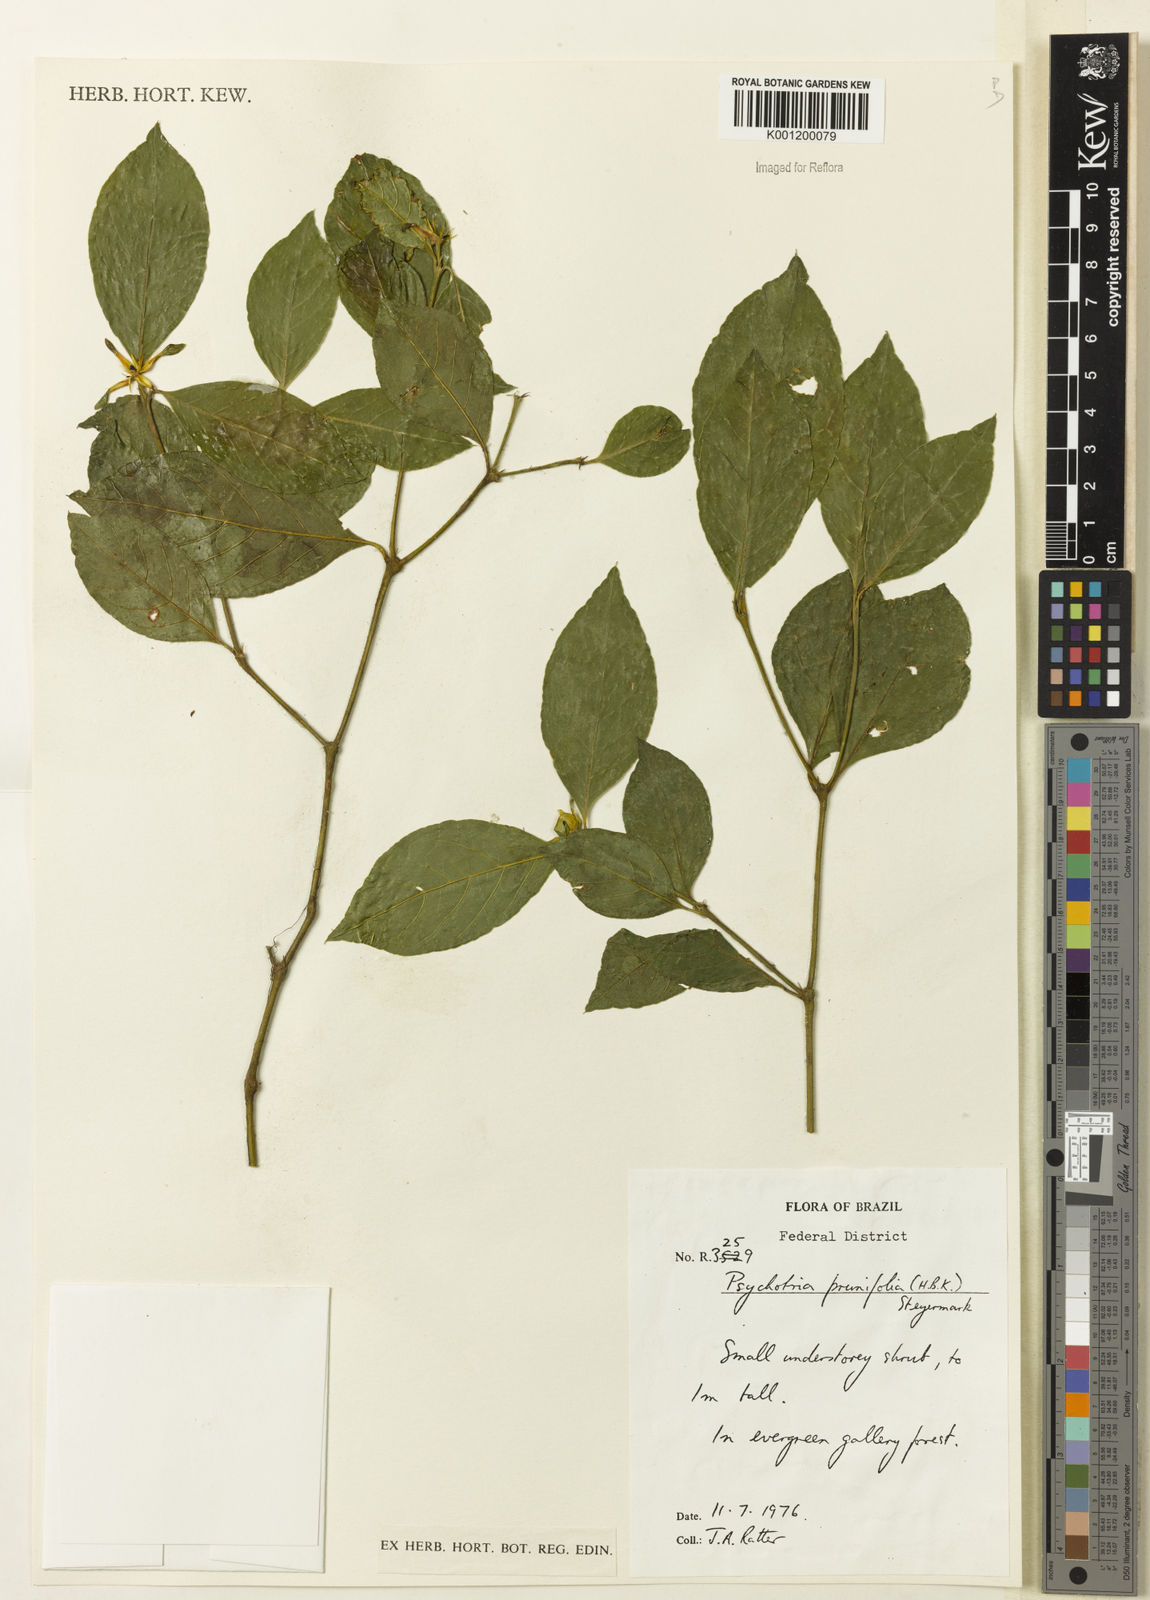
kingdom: Plantae
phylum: Tracheophyta
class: Magnoliopsida
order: Gentianales
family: Rubiaceae
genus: Palicourea
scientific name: Palicourea prunifolia
